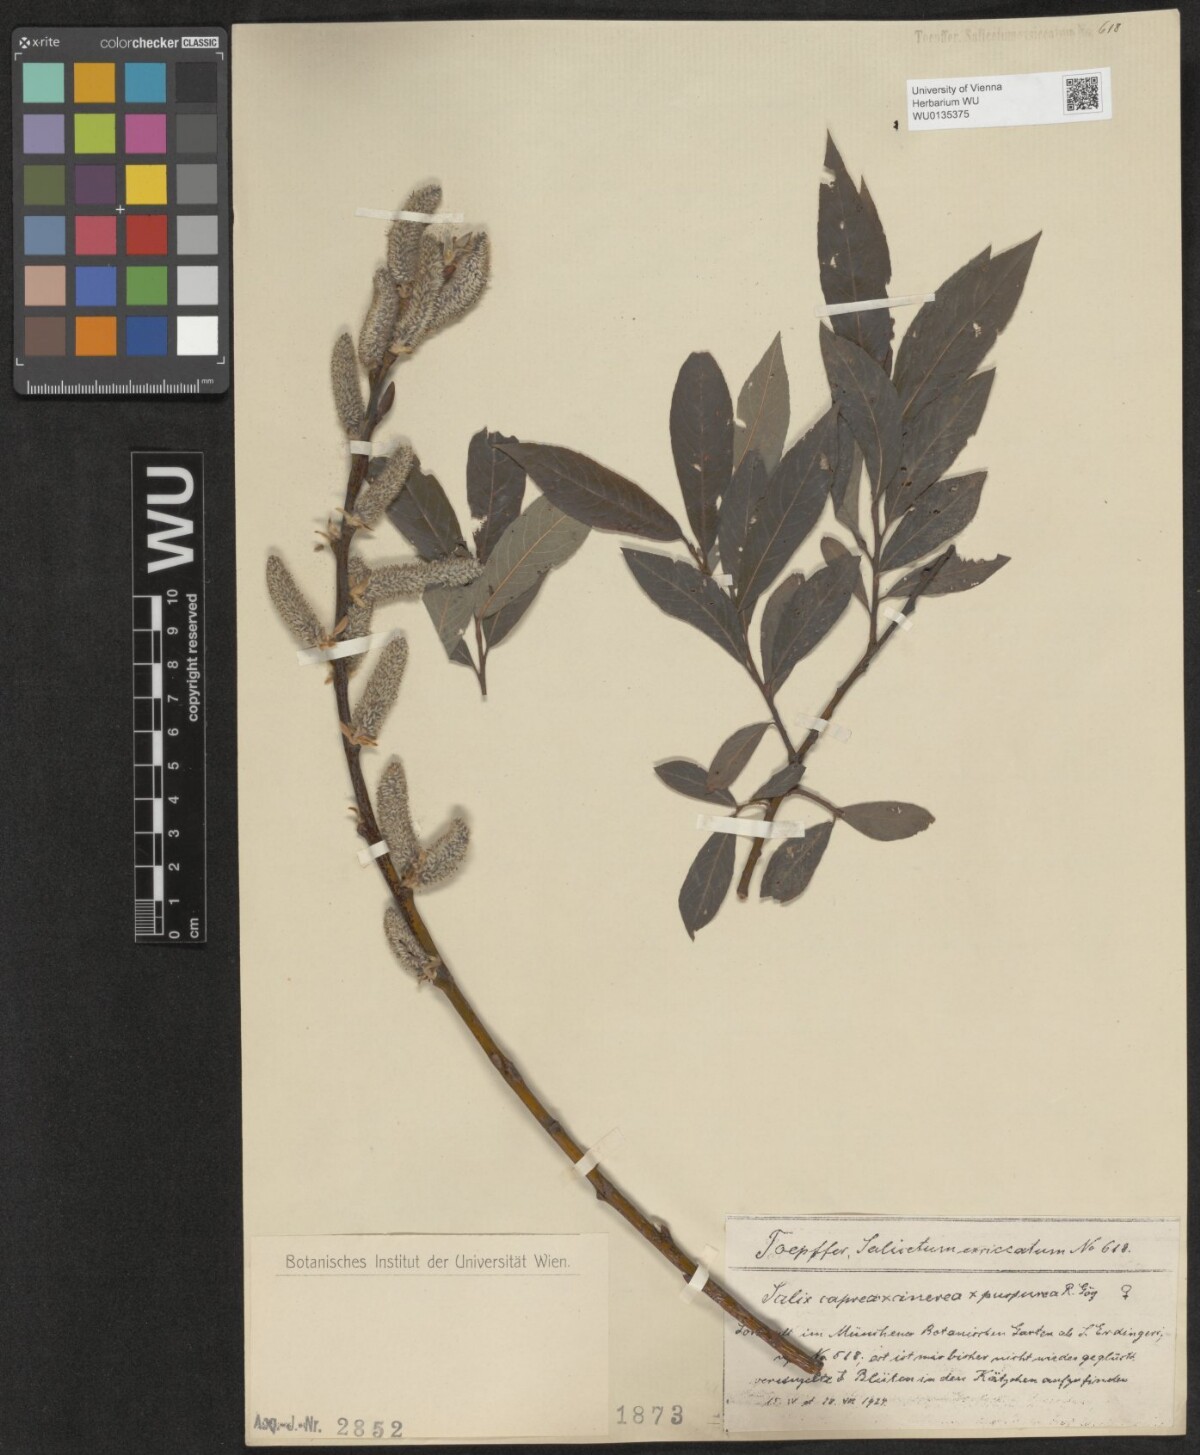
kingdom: Plantae
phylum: Tracheophyta
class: Magnoliopsida
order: Malpighiales
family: Salicaceae
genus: Salix
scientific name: Salix
